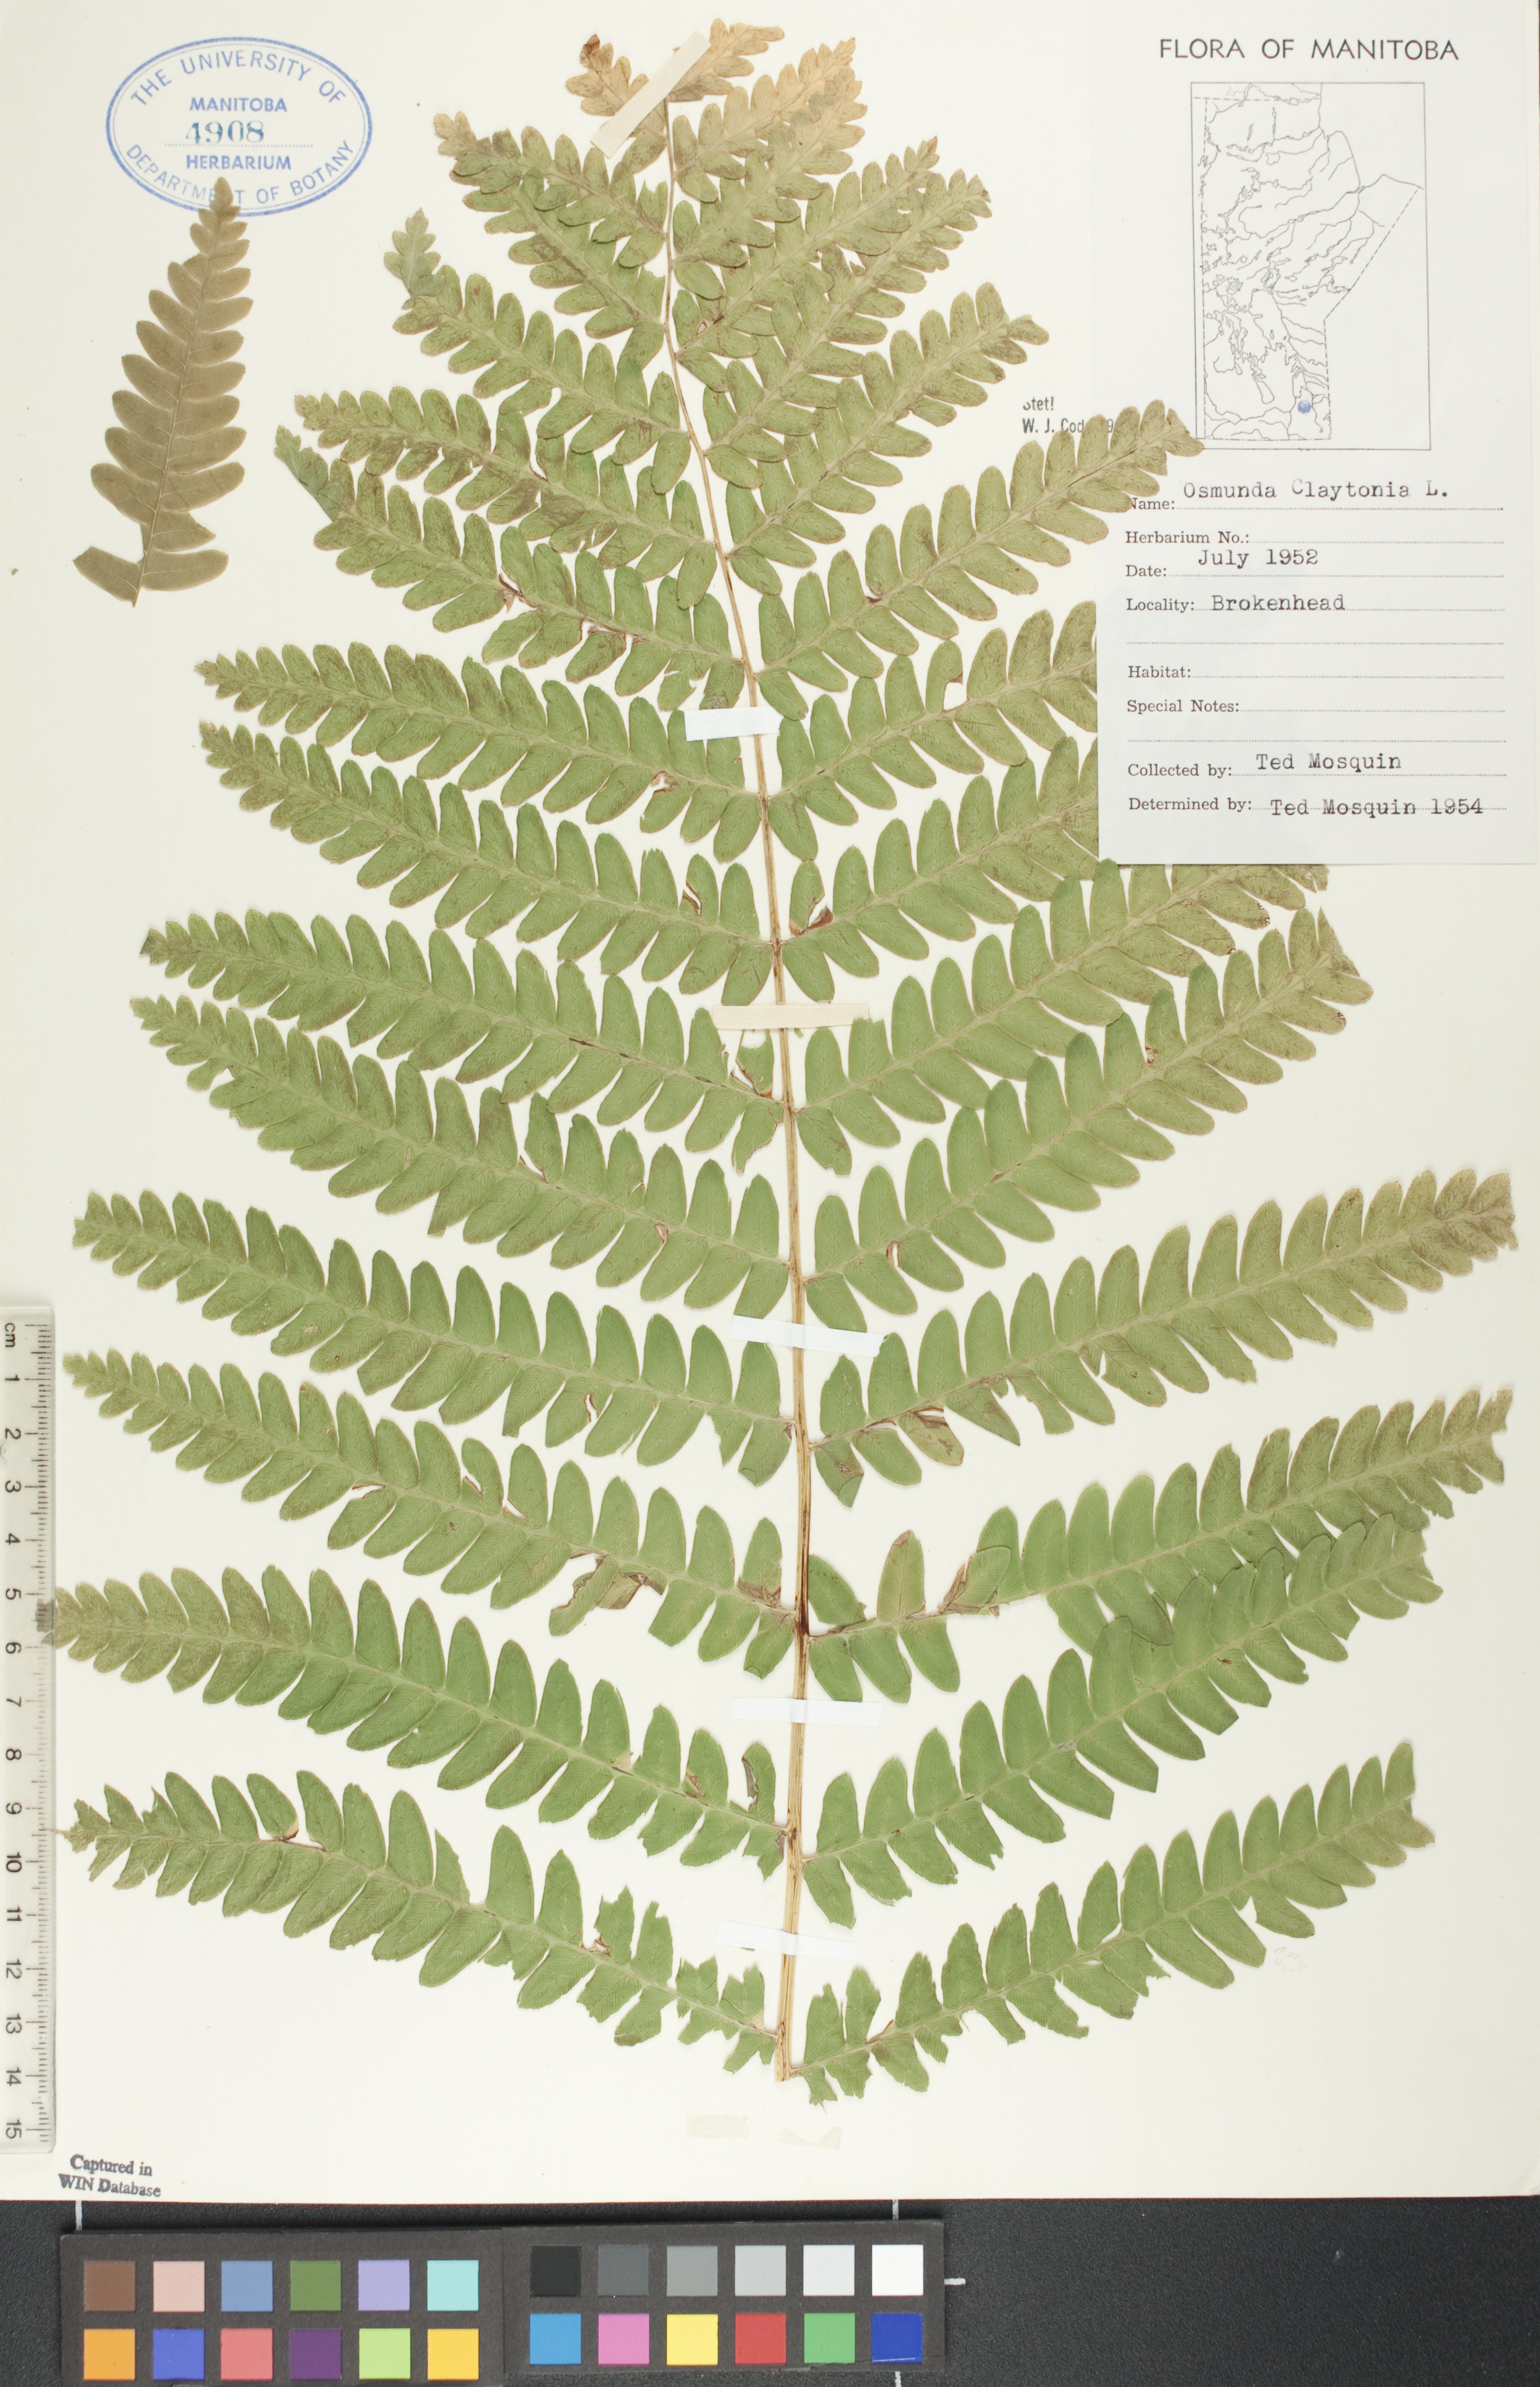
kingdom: Plantae
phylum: Tracheophyta
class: Polypodiopsida
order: Osmundales
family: Osmundaceae
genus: Claytosmunda
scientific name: Claytosmunda claytoniana
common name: Clayton's fern
